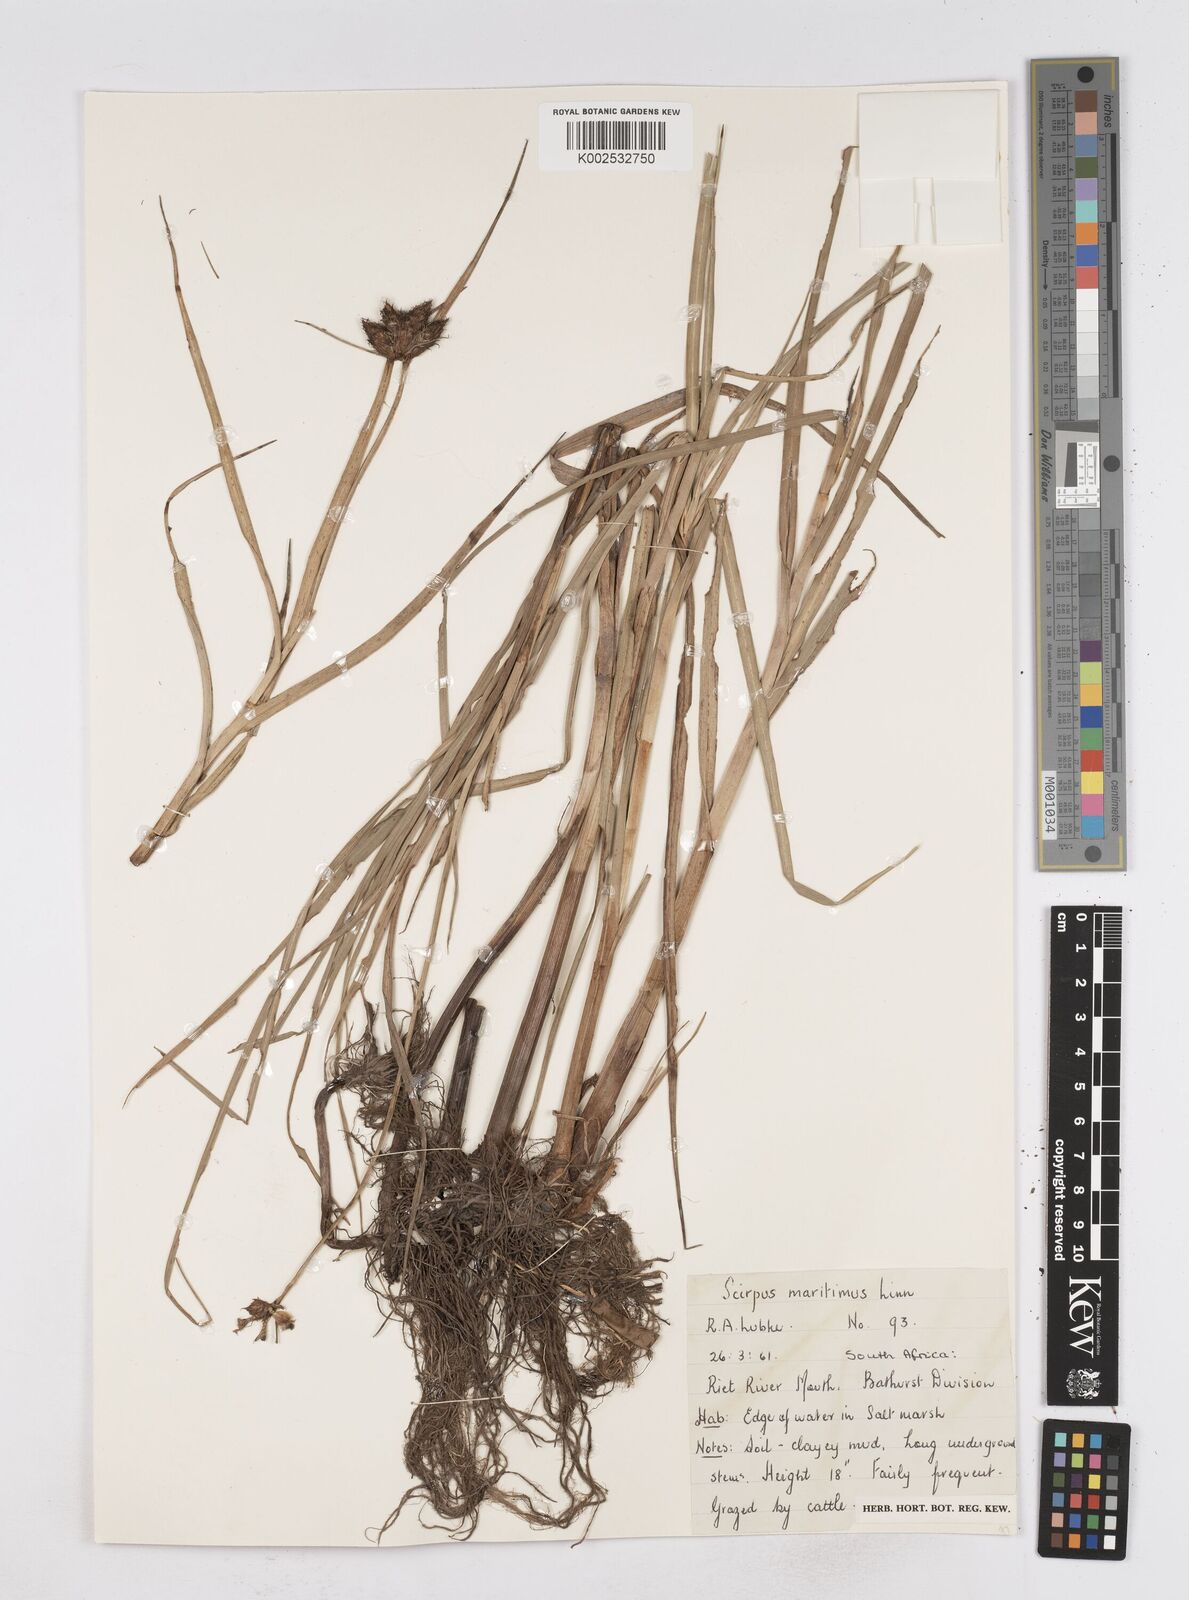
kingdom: Plantae
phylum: Tracheophyta
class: Liliopsida
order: Poales
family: Cyperaceae
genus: Bolboschoenus
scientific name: Bolboschoenus maritimus
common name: Sea club-rush
